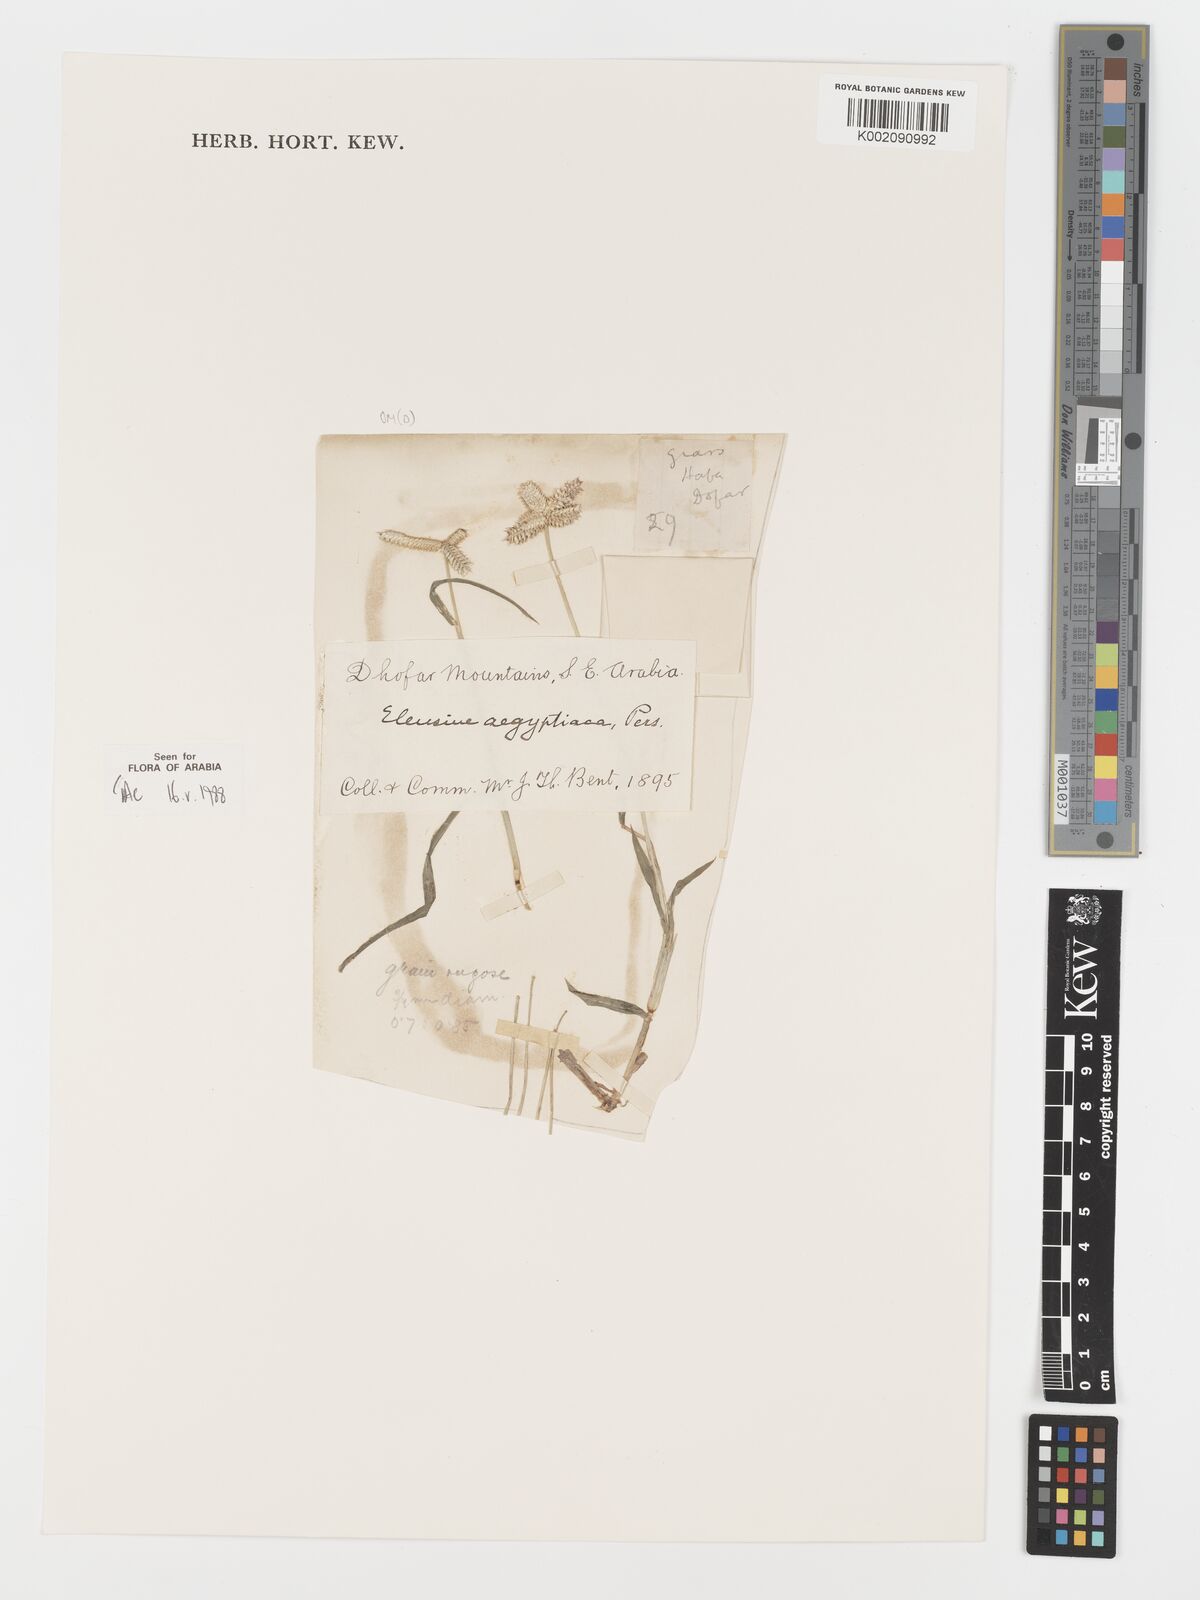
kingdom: Plantae
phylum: Tracheophyta
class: Liliopsida
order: Poales
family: Poaceae
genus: Dactyloctenium
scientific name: Dactyloctenium aegyptium
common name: Egyptian grass
